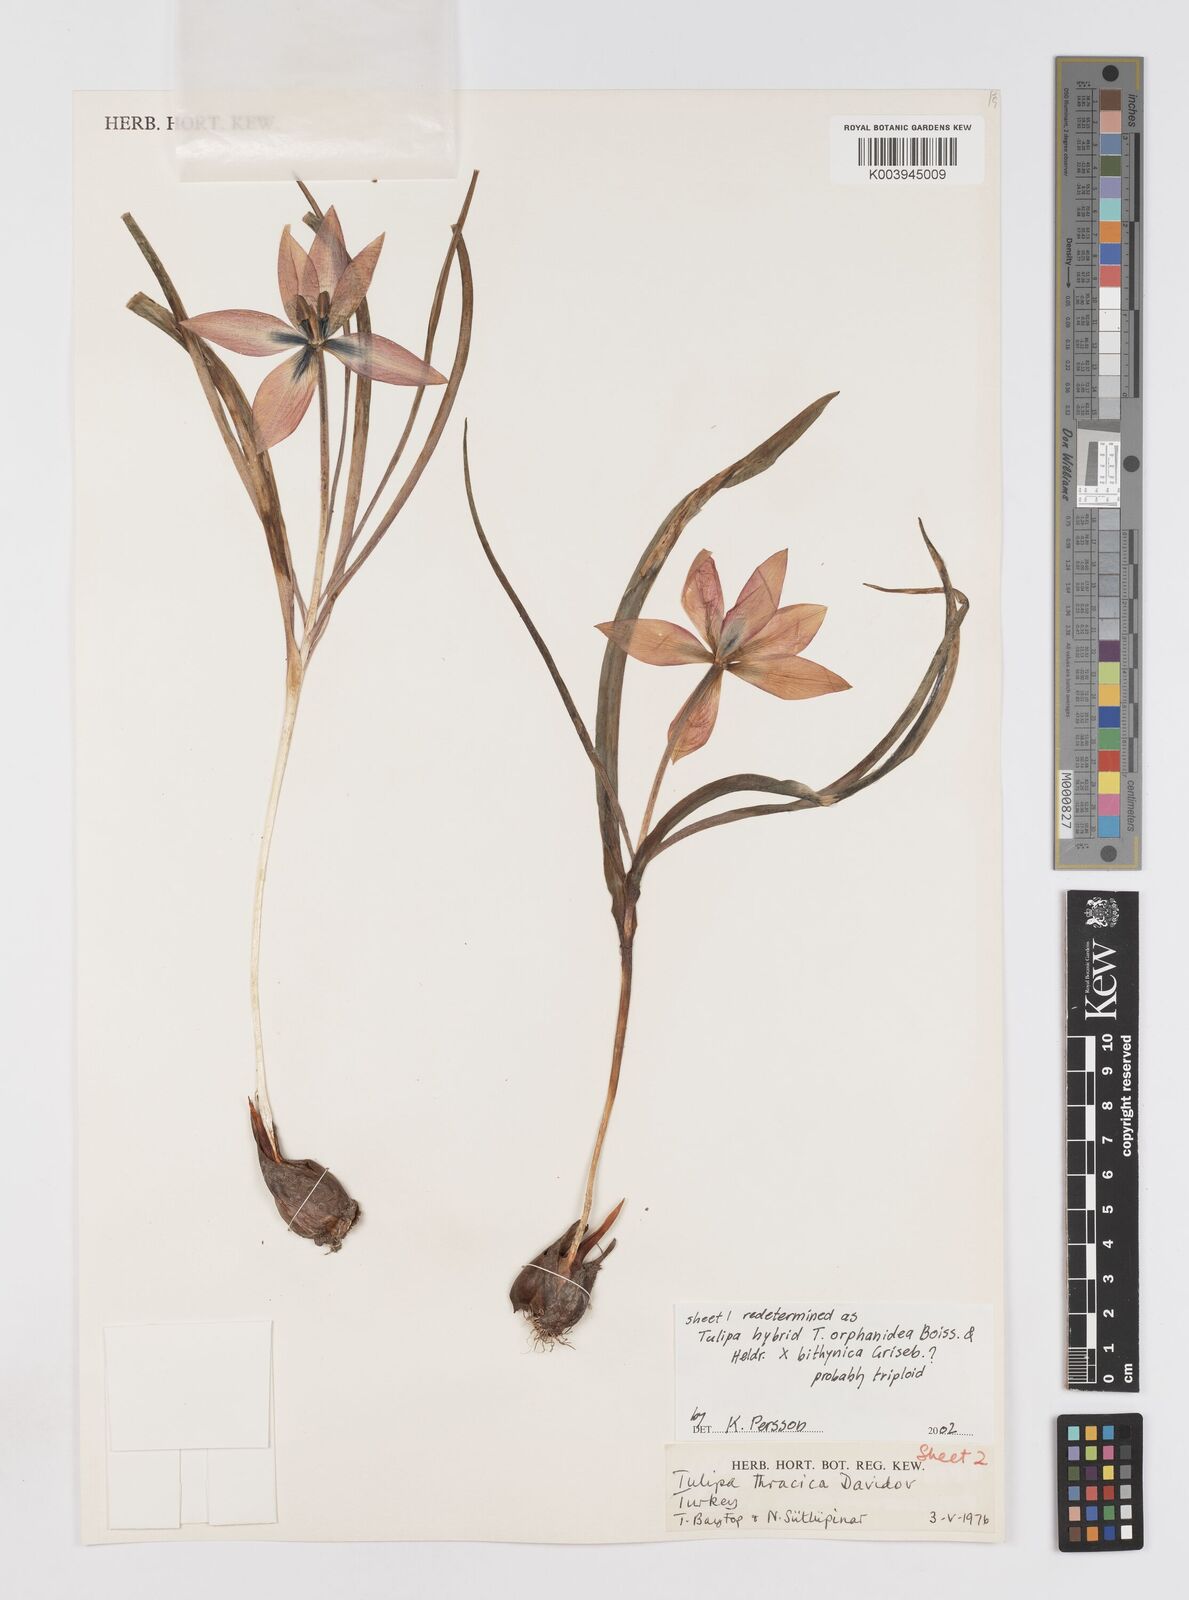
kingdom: Plantae
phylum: Tracheophyta
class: Liliopsida
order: Liliales
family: Liliaceae
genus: Tulipa
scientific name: Tulipa orphanidea
